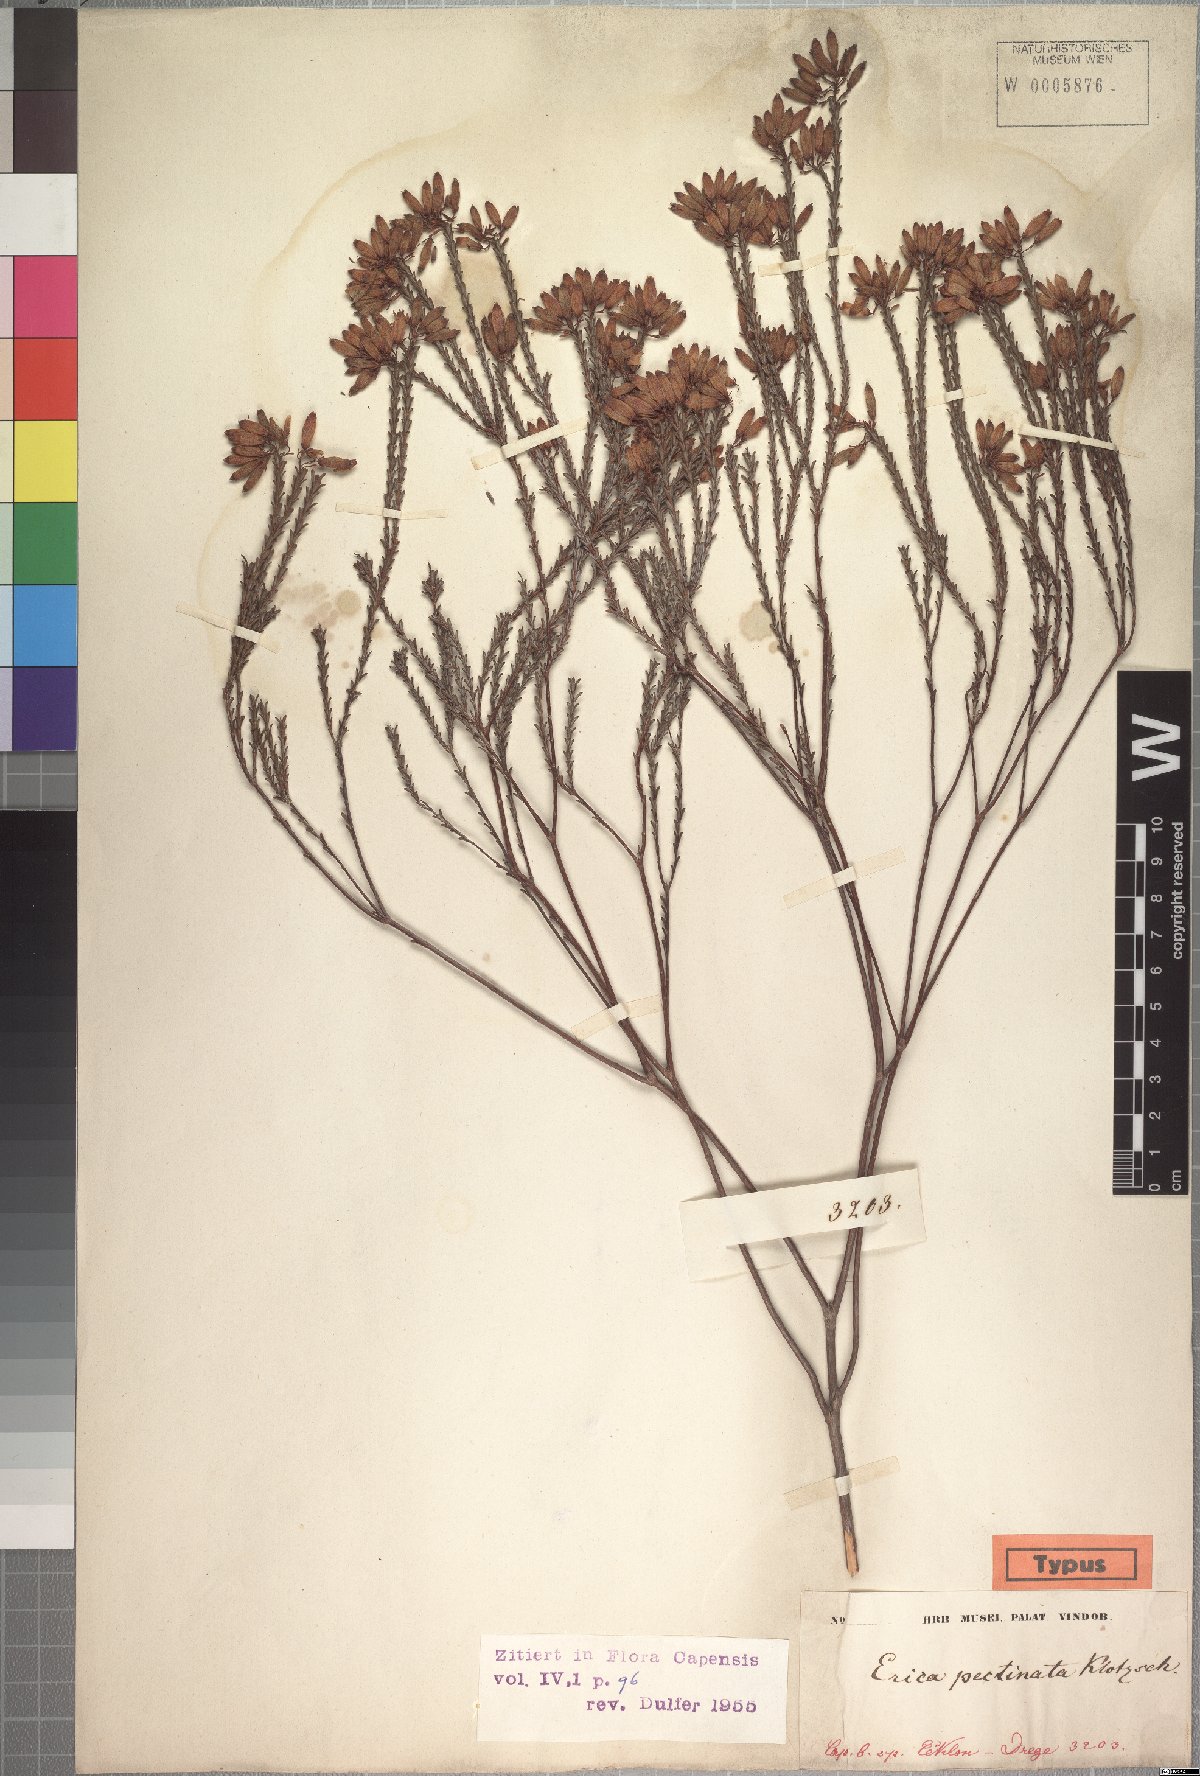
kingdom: Plantae
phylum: Tracheophyta
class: Magnoliopsida
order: Ericales
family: Ericaceae
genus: Erica
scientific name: Erica cristata
